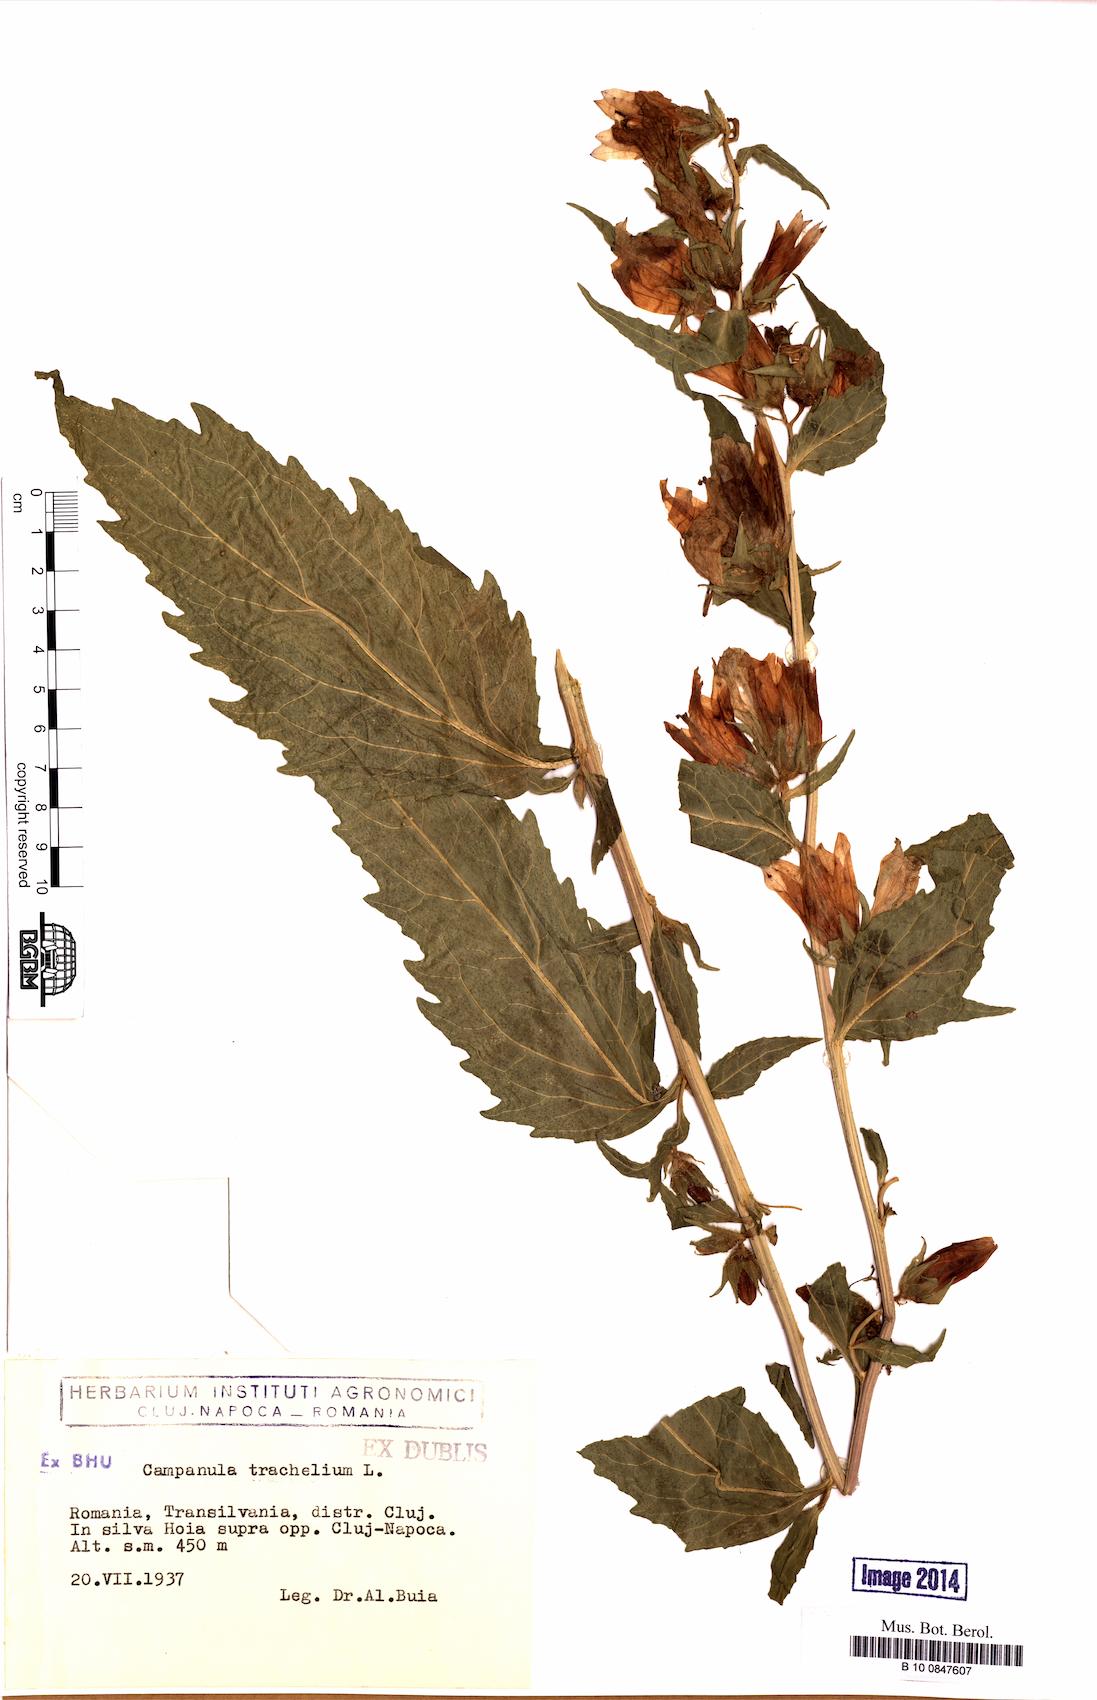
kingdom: Plantae
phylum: Tracheophyta
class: Magnoliopsida
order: Asterales
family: Campanulaceae
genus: Campanula
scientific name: Campanula trachelium
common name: Nettle-leaved bellflower
